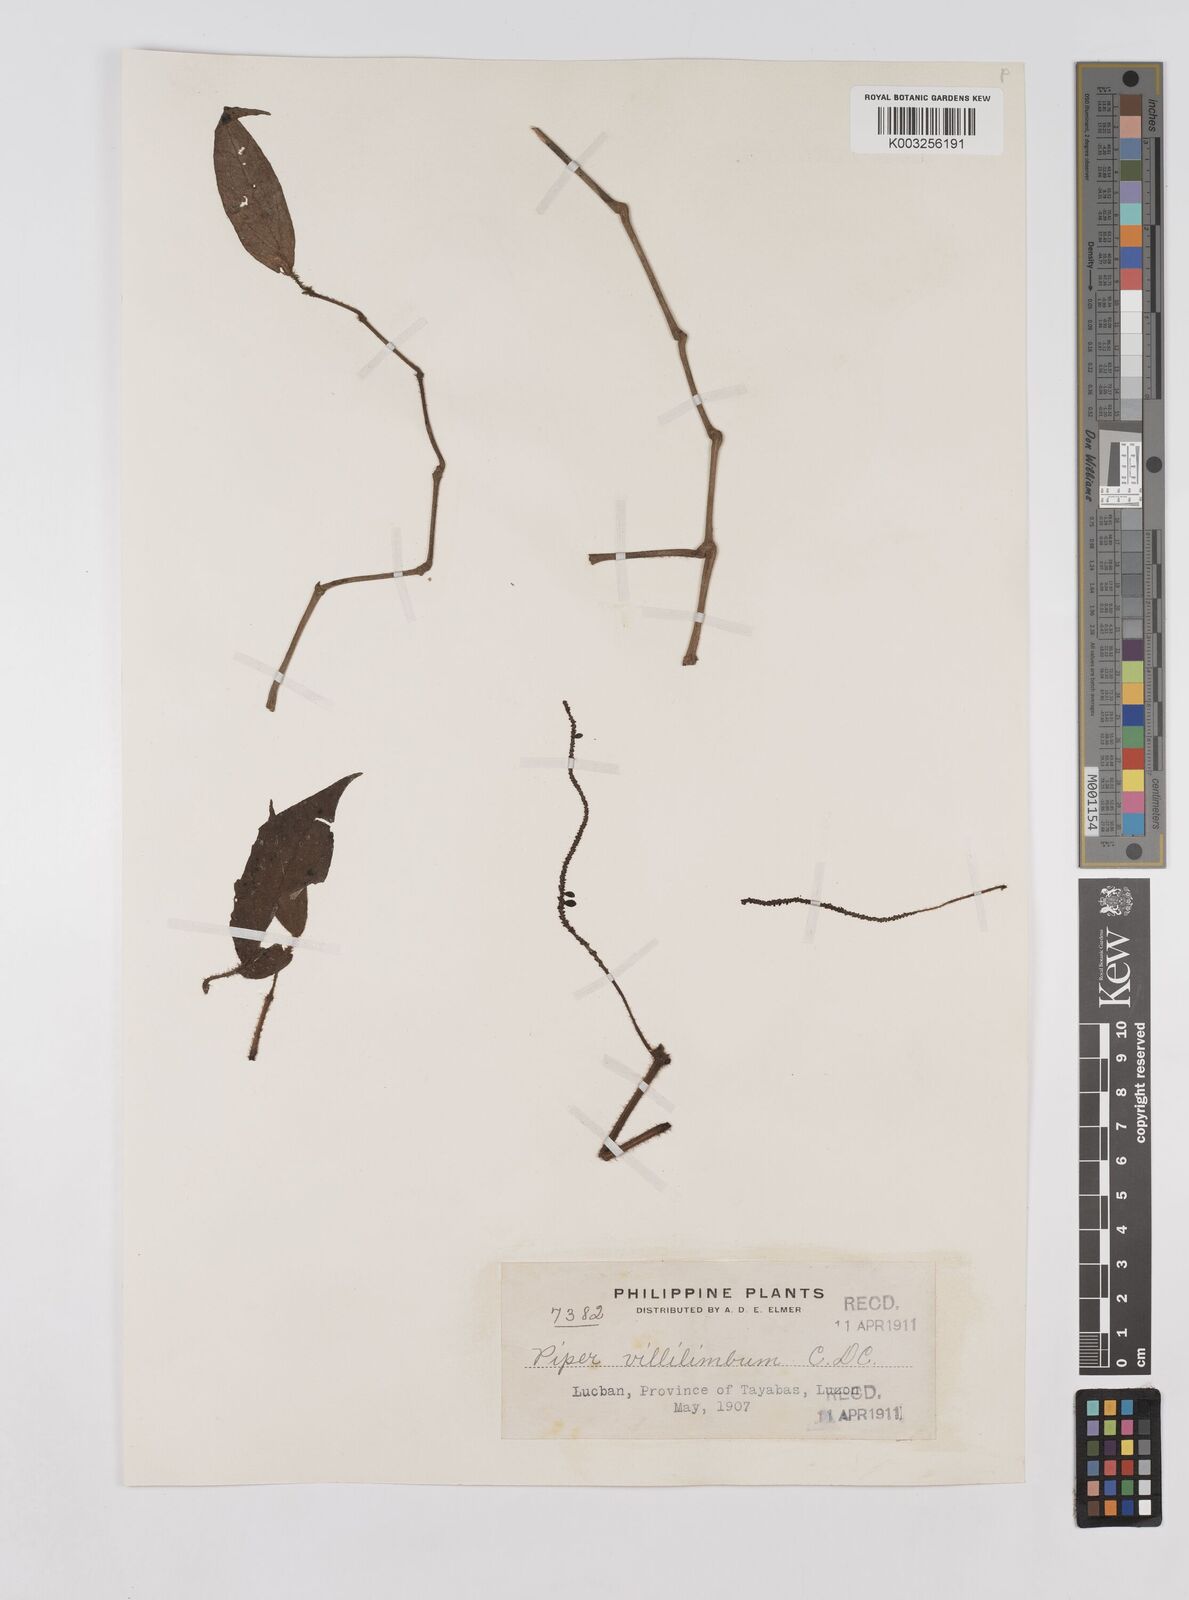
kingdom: Plantae
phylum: Tracheophyta
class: Magnoliopsida
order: Piperales
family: Piperaceae
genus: Piper
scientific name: Piper lanatum
